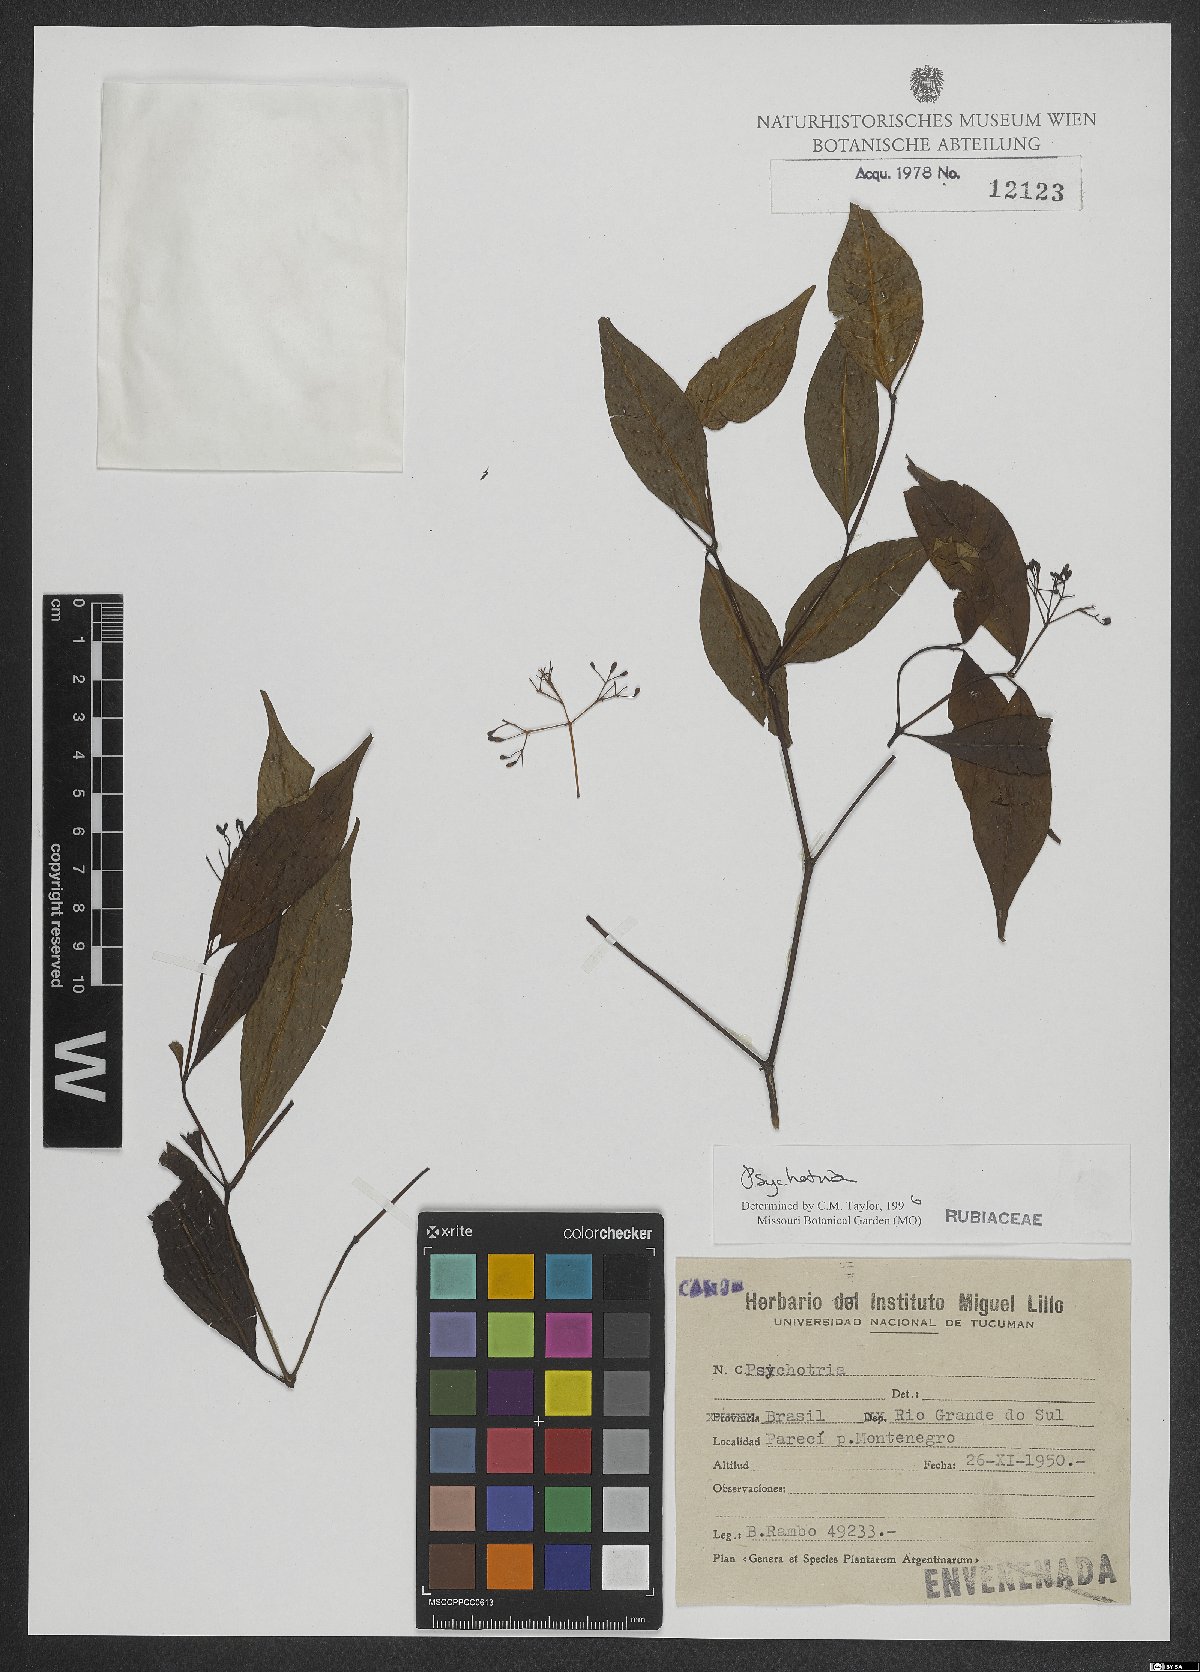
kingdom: Plantae
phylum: Tracheophyta
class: Magnoliopsida
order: Gentianales
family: Rubiaceae
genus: Psychotria
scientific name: Psychotria
